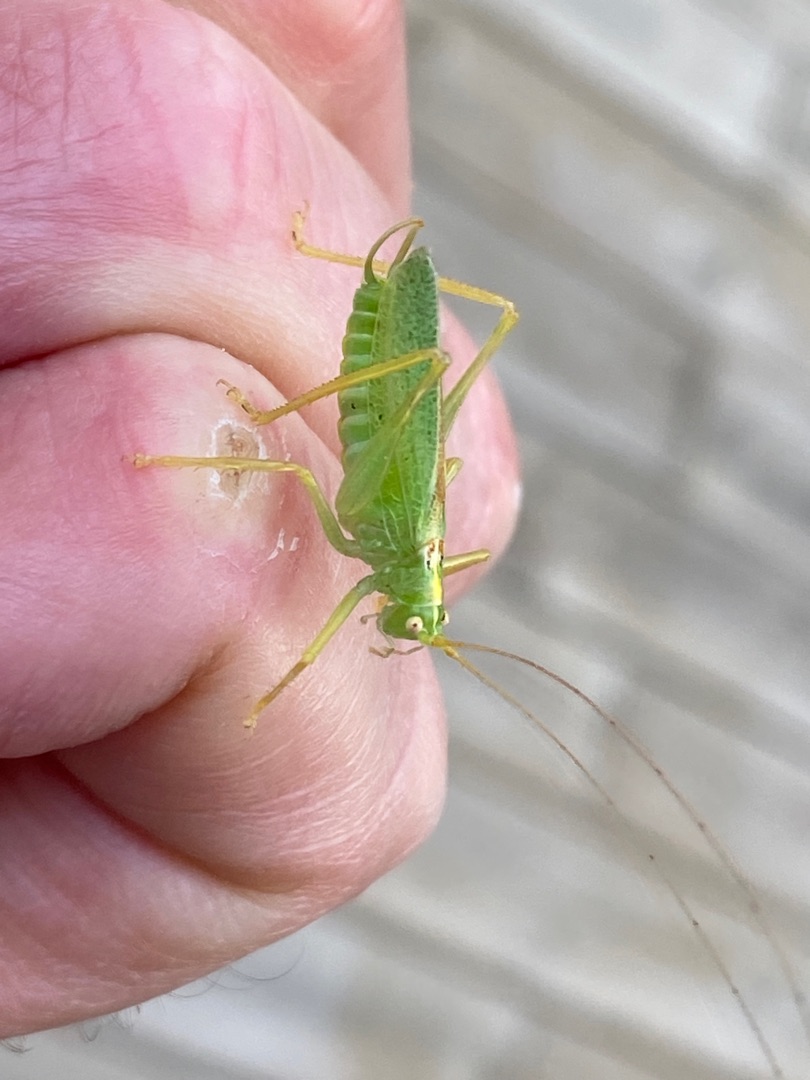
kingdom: Animalia
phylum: Arthropoda
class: Insecta
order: Orthoptera
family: Tettigoniidae
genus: Meconema
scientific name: Meconema thalassinum
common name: Egegræshoppe
